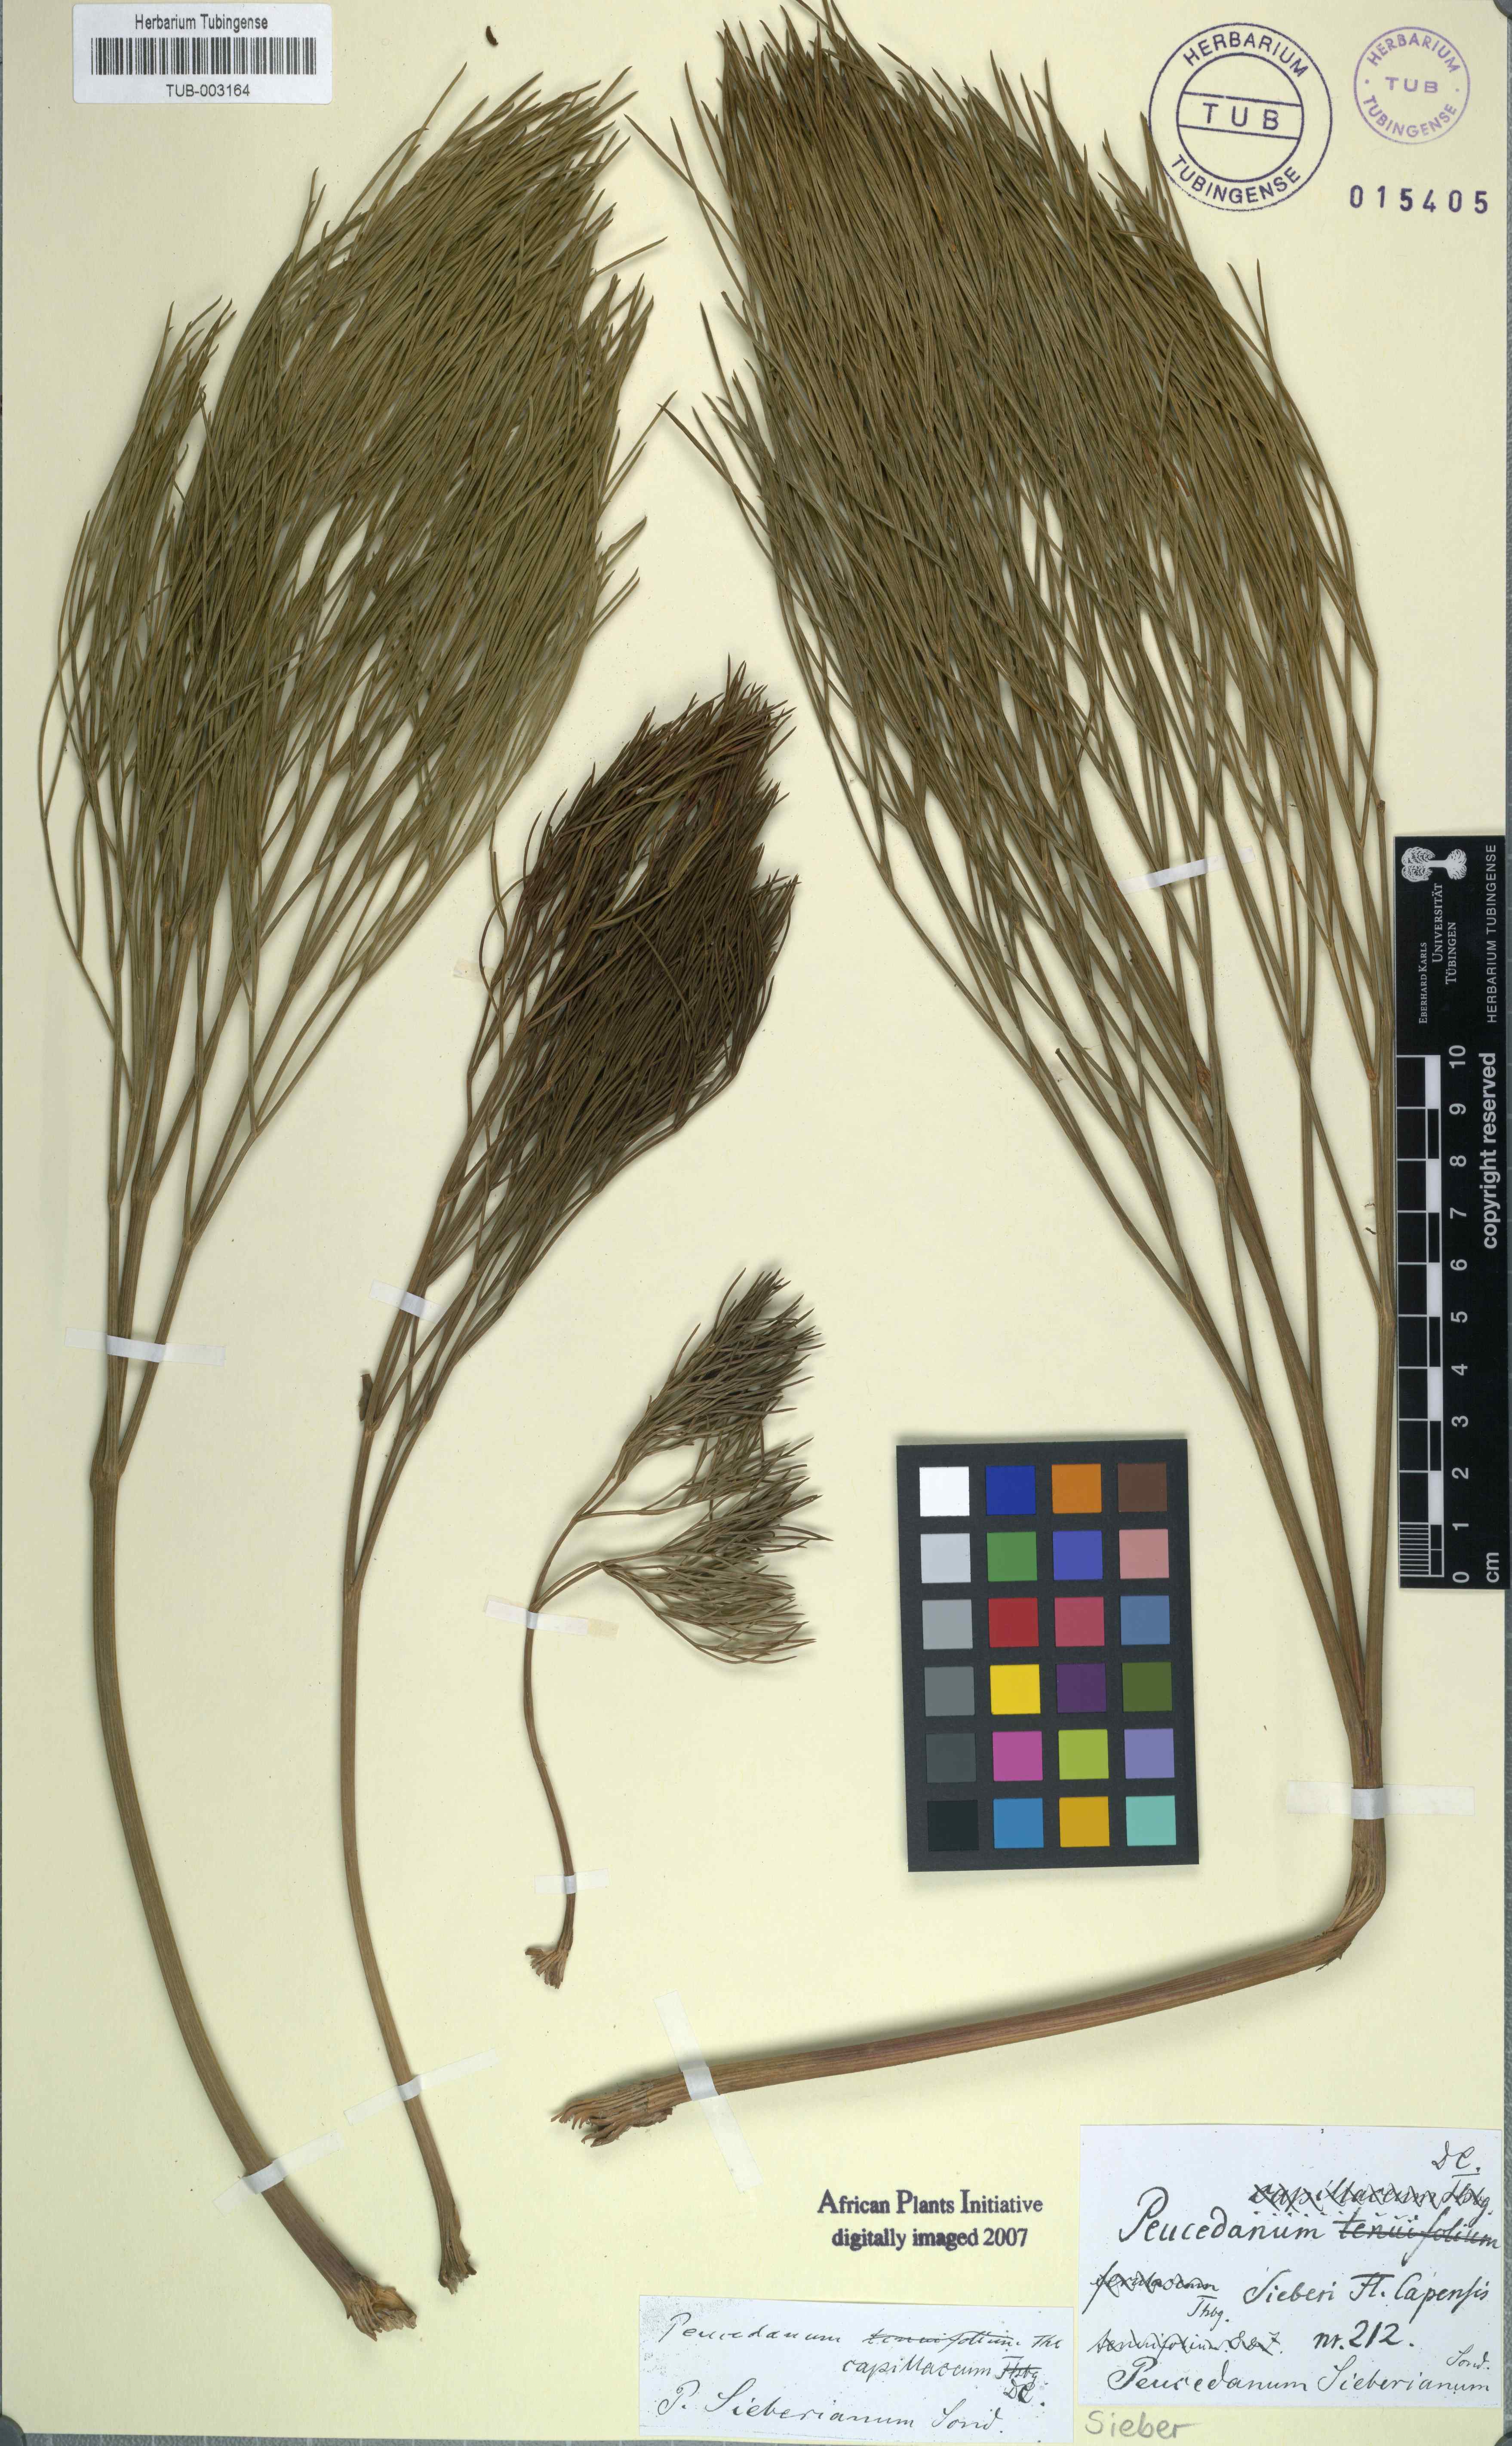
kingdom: Plantae
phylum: Tracheophyta
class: Magnoliopsida
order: Apiales
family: Apiaceae
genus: Nanobubon
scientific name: Nanobubon strictum
